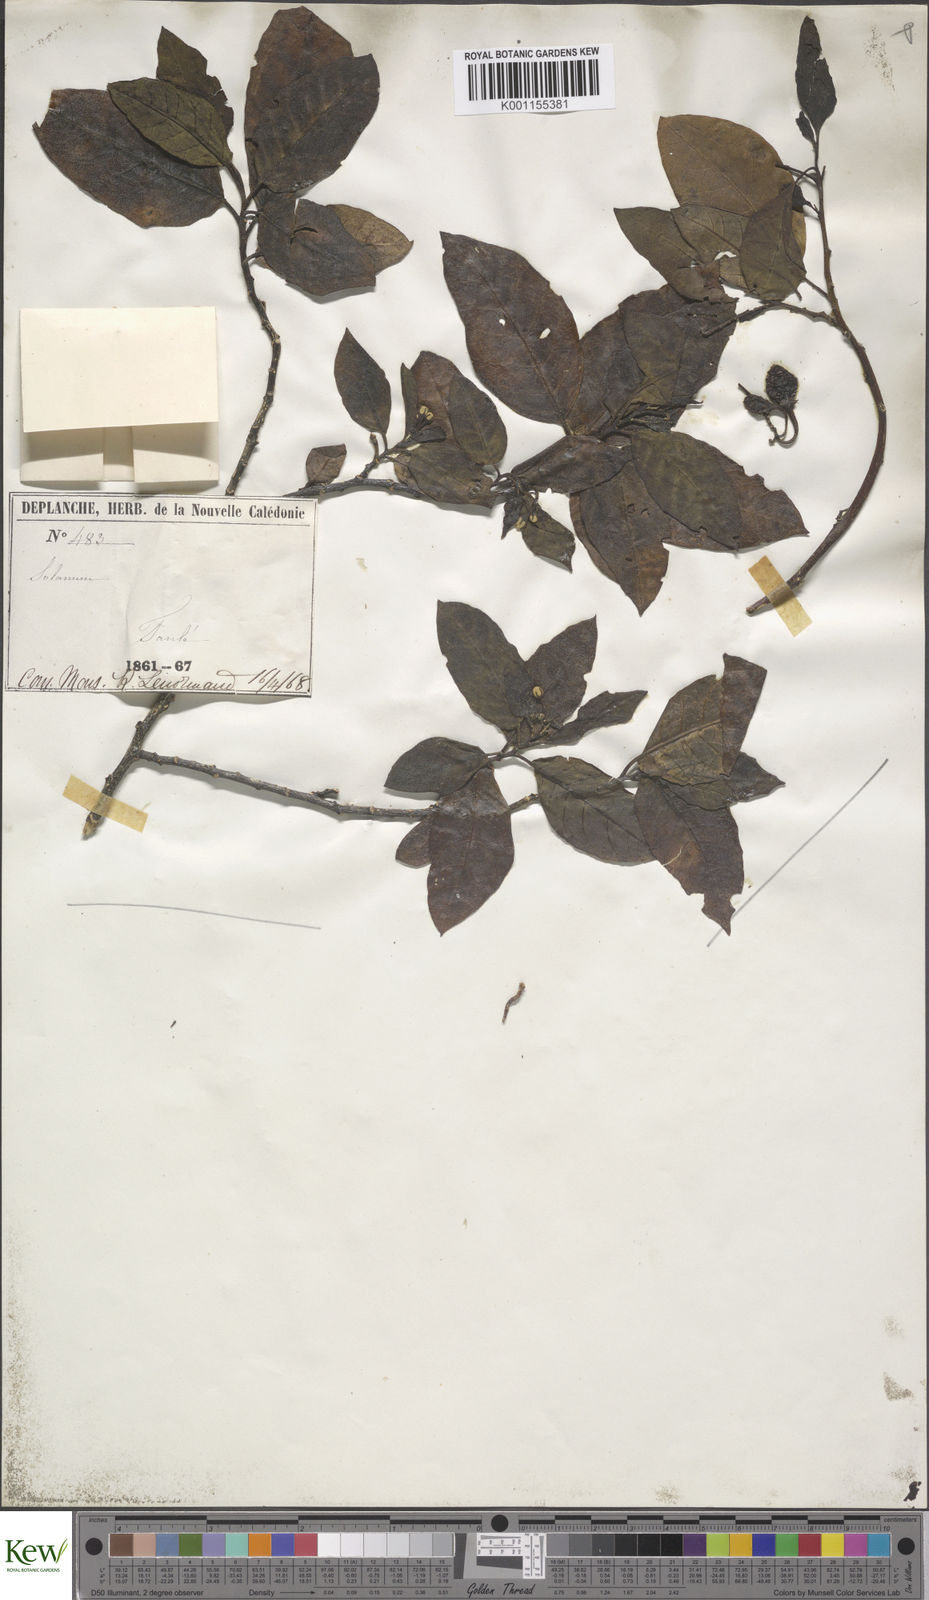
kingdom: Plantae
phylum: Tracheophyta
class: Magnoliopsida
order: Solanales
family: Solanaceae
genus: Solanum
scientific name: Solanum artense
